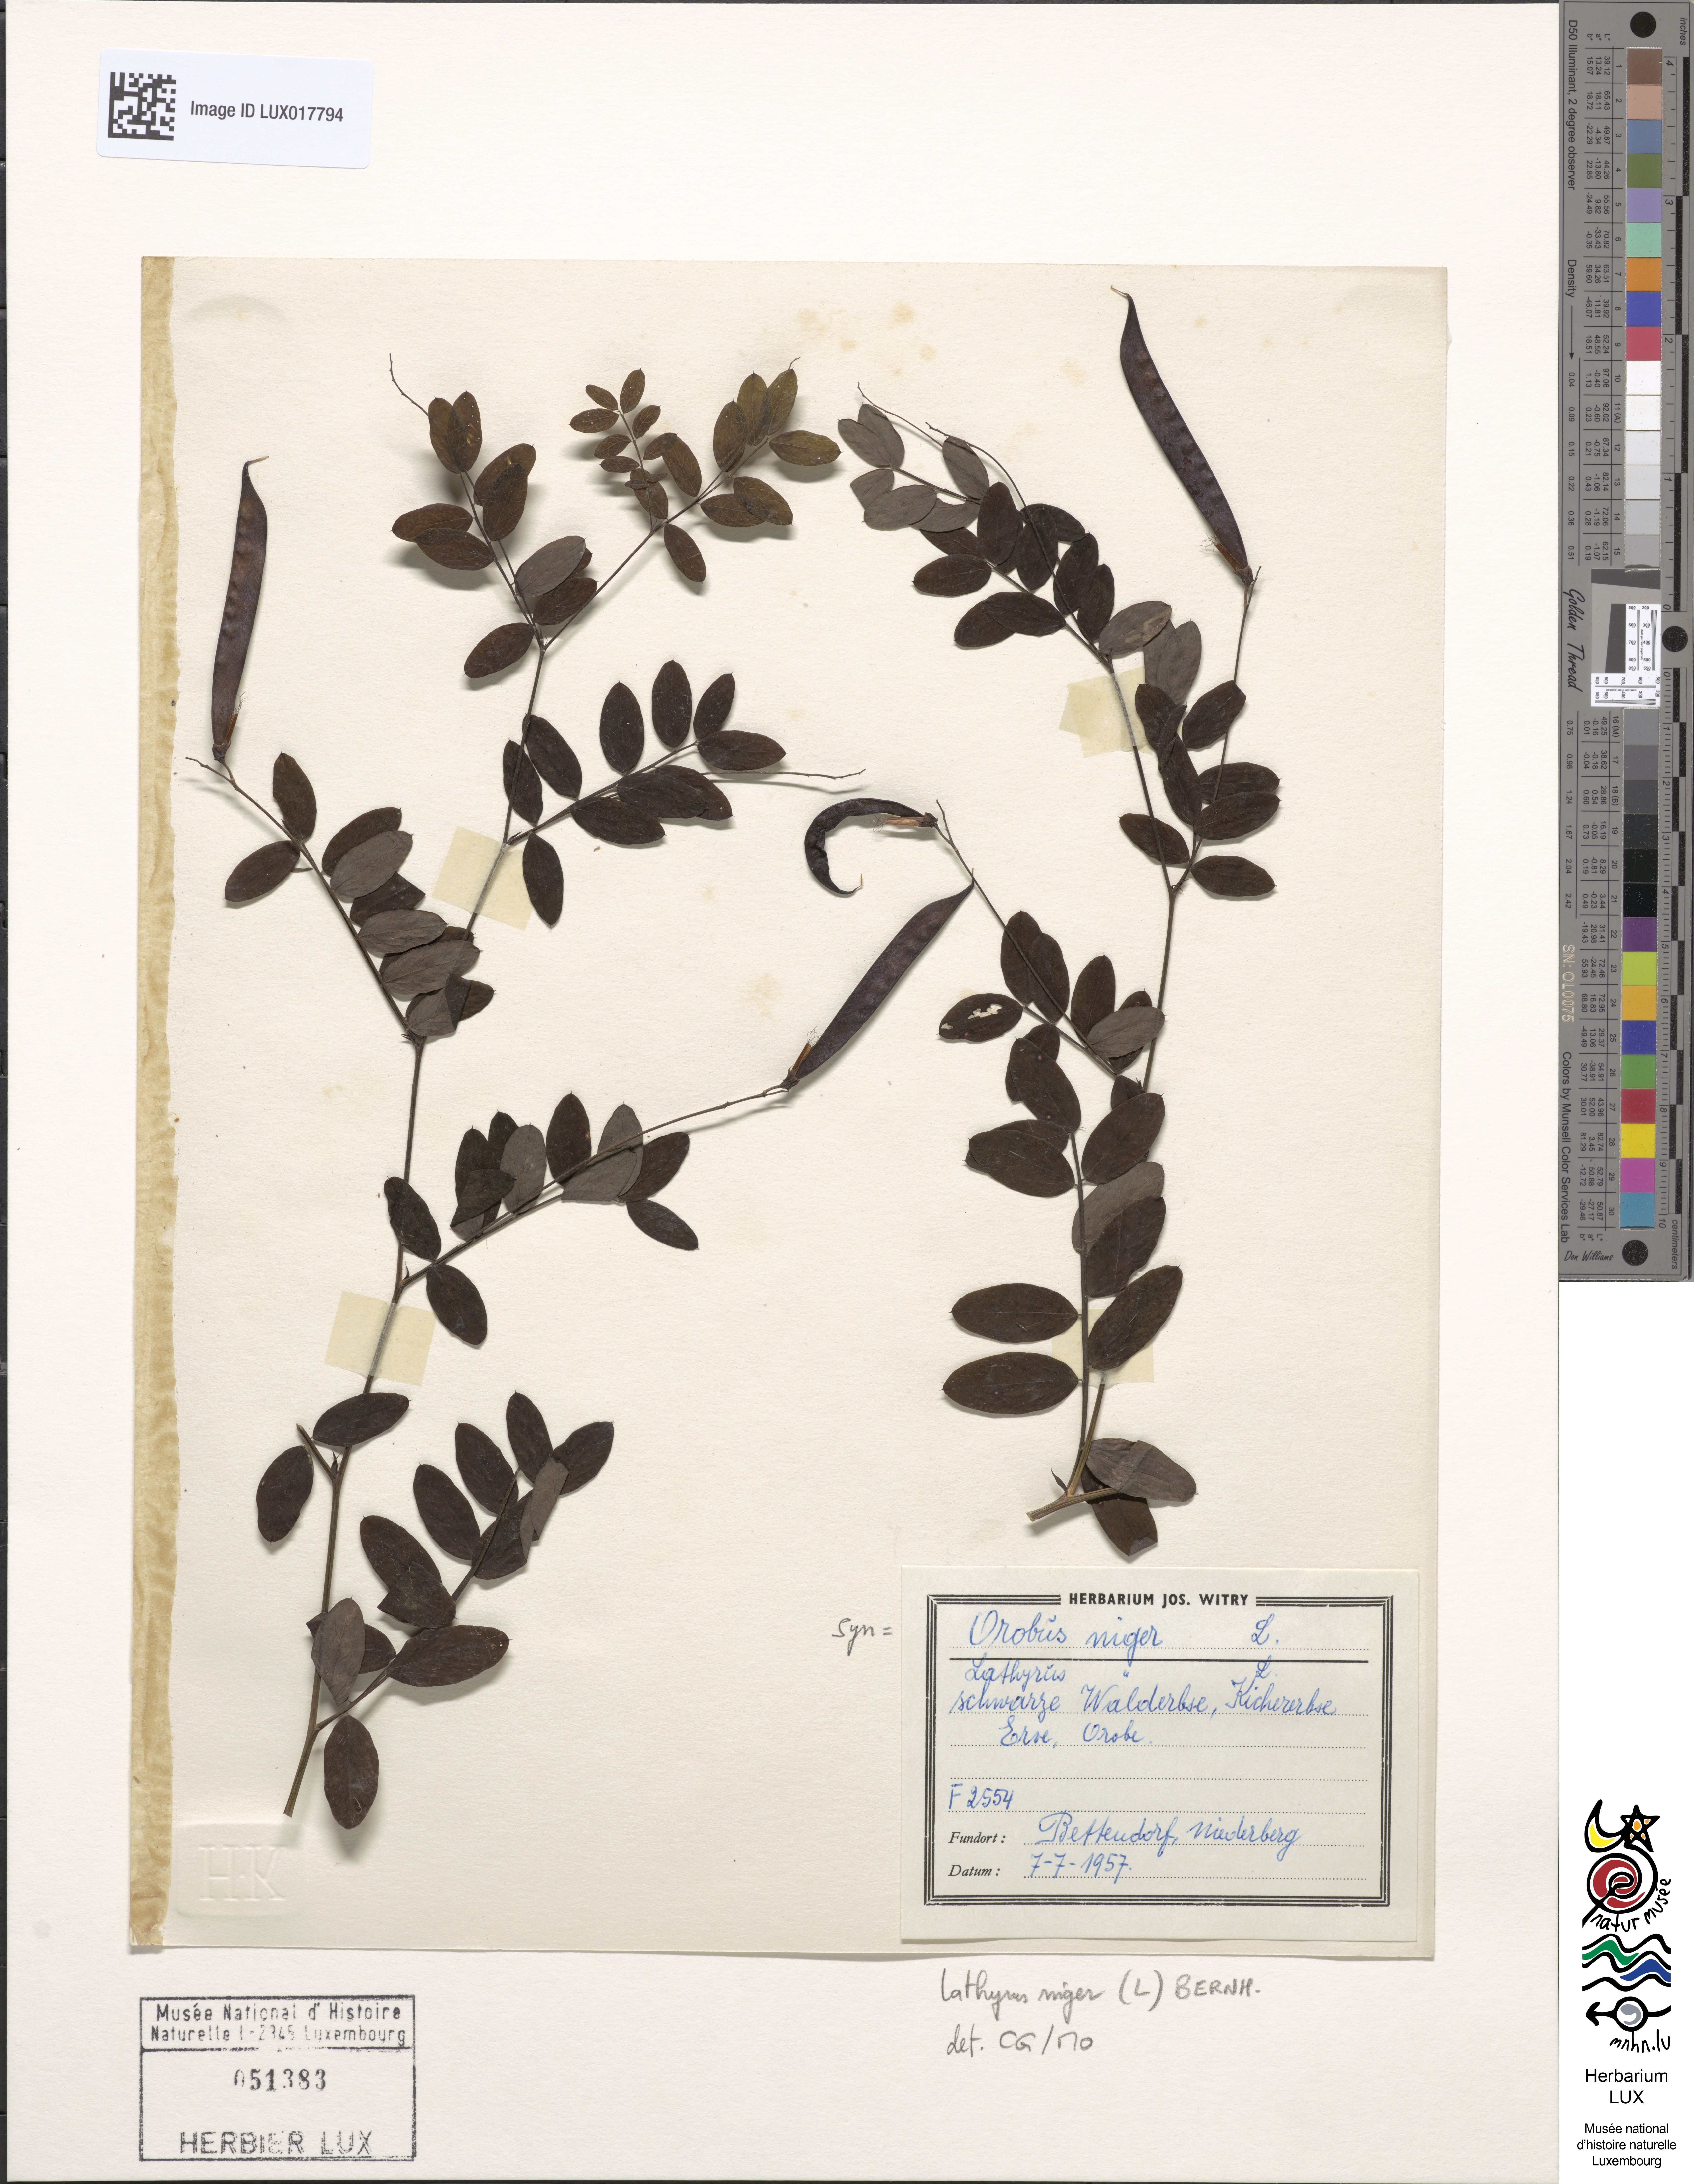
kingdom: Plantae
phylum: Tracheophyta
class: Magnoliopsida
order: Fabales
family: Fabaceae
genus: Lathyrus
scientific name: Lathyrus niger
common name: Black pea
